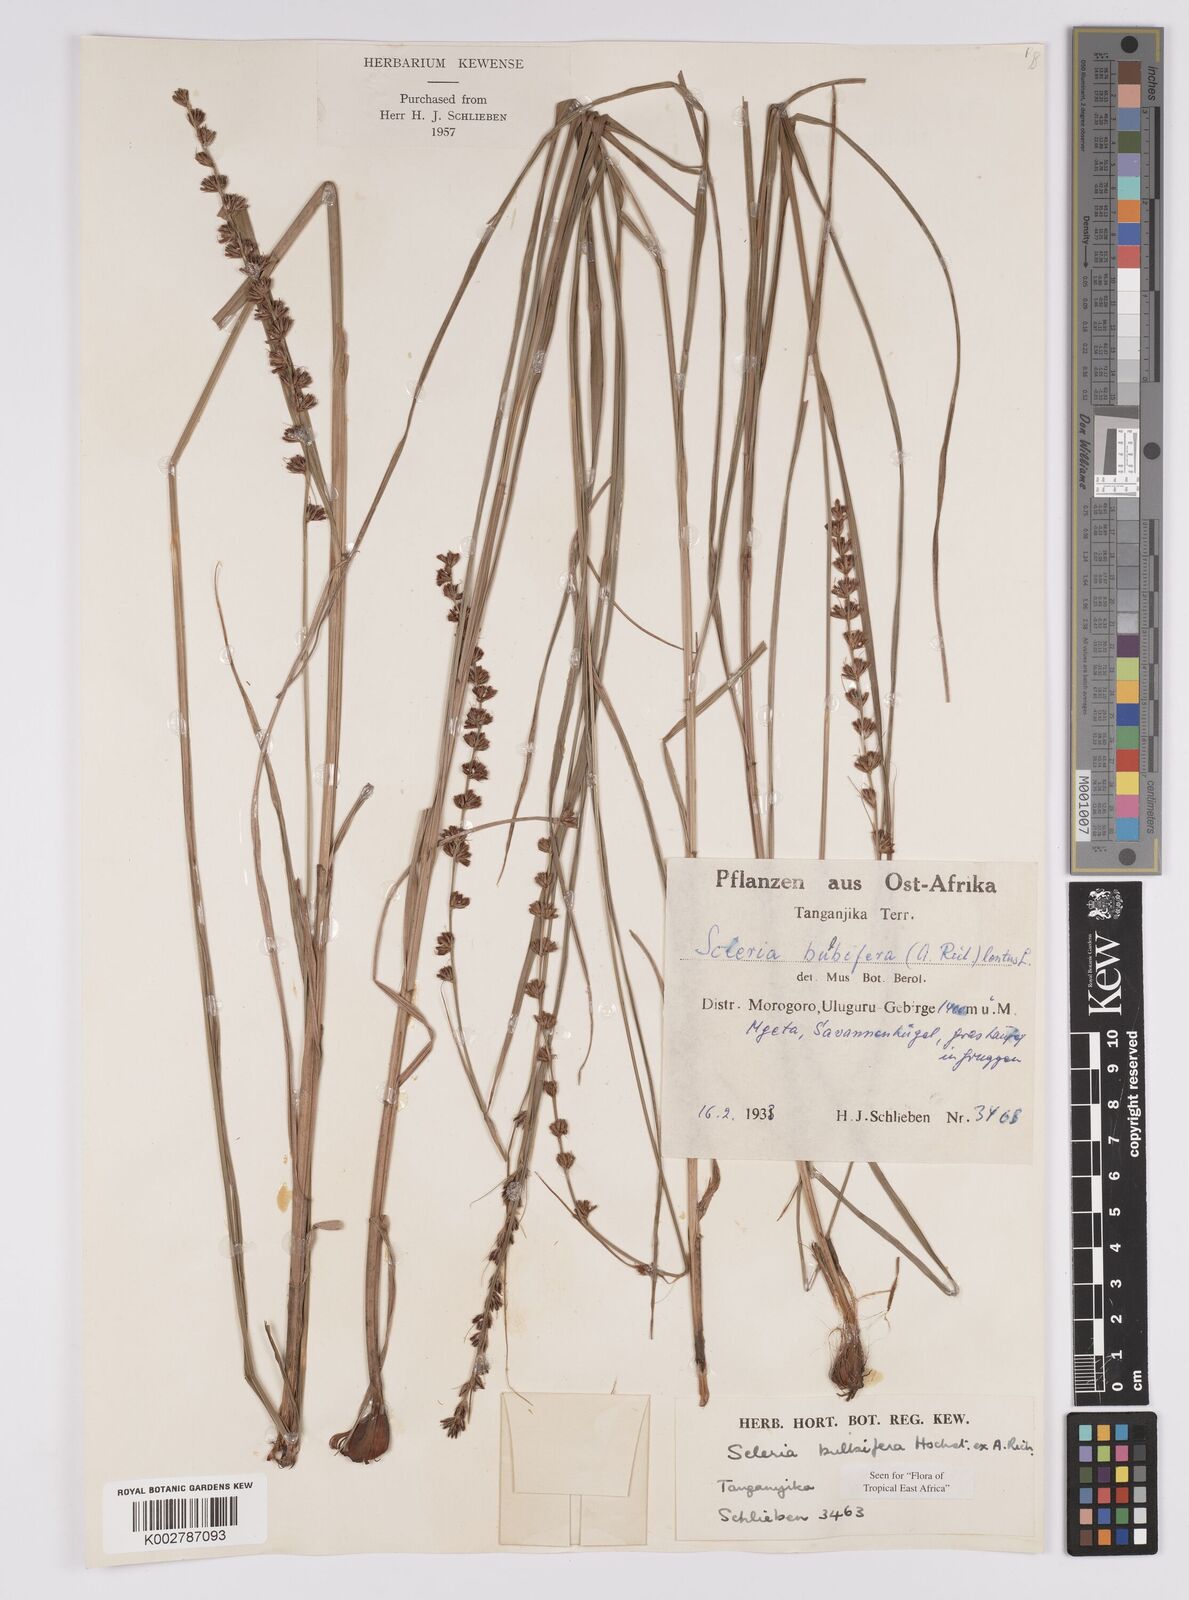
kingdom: Plantae
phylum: Tracheophyta
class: Liliopsida
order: Poales
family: Cyperaceae
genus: Scleria
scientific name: Scleria bulbifera
